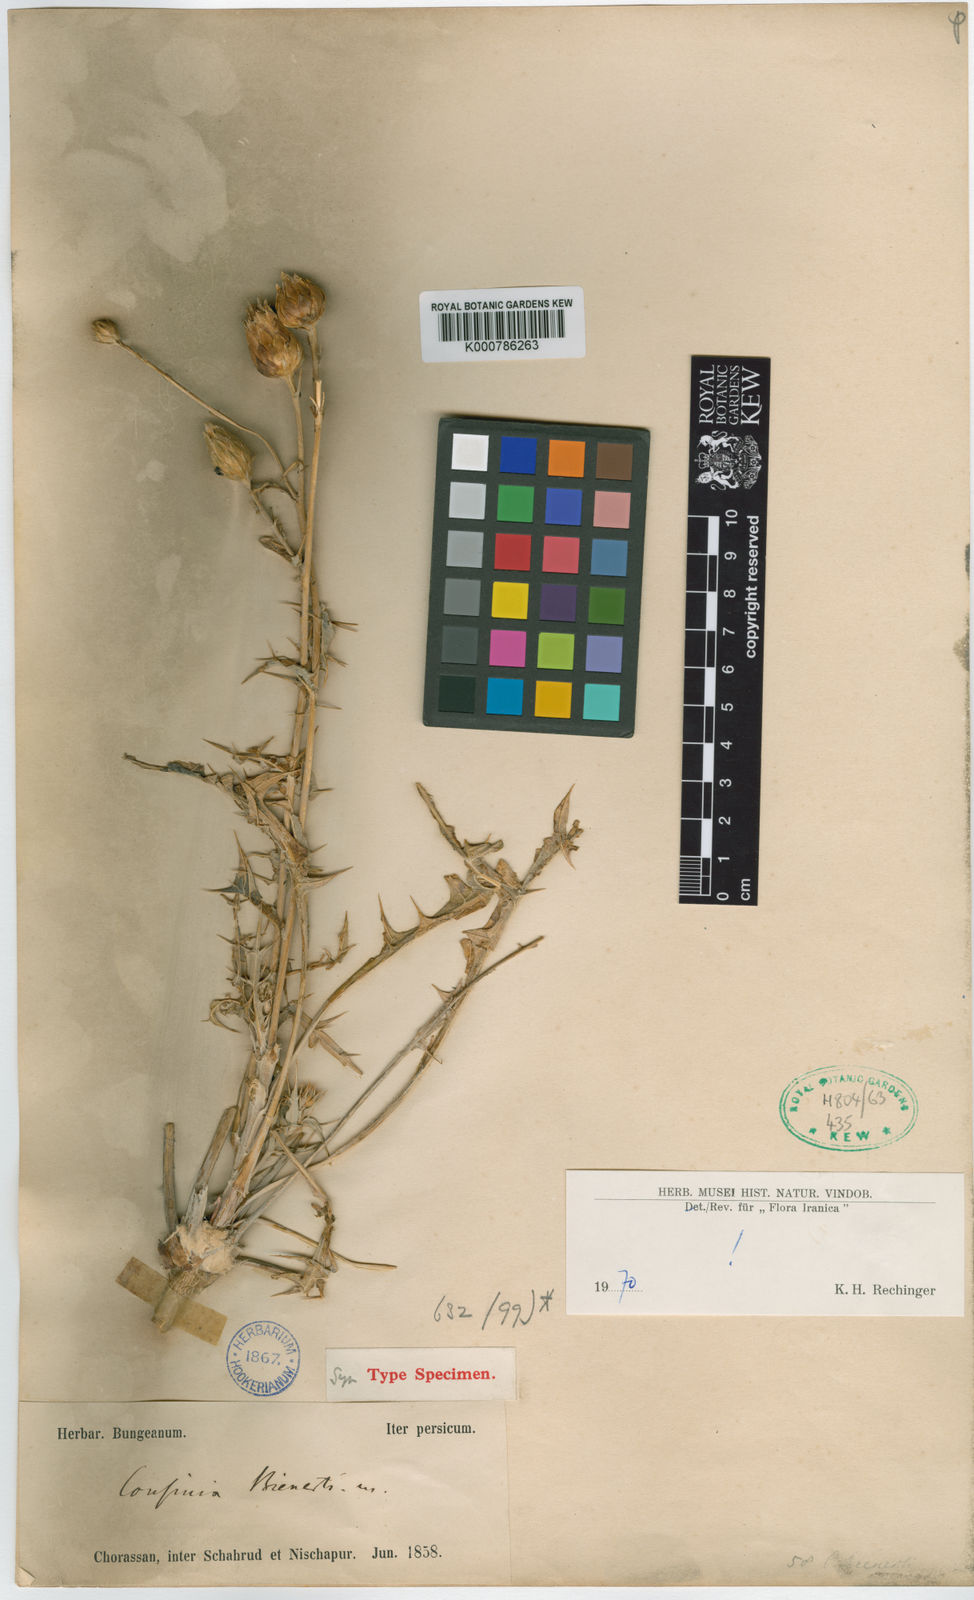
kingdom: Plantae
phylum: Tracheophyta
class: Magnoliopsida
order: Asterales
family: Asteraceae
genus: Cousinia
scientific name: Cousinia bienerti
